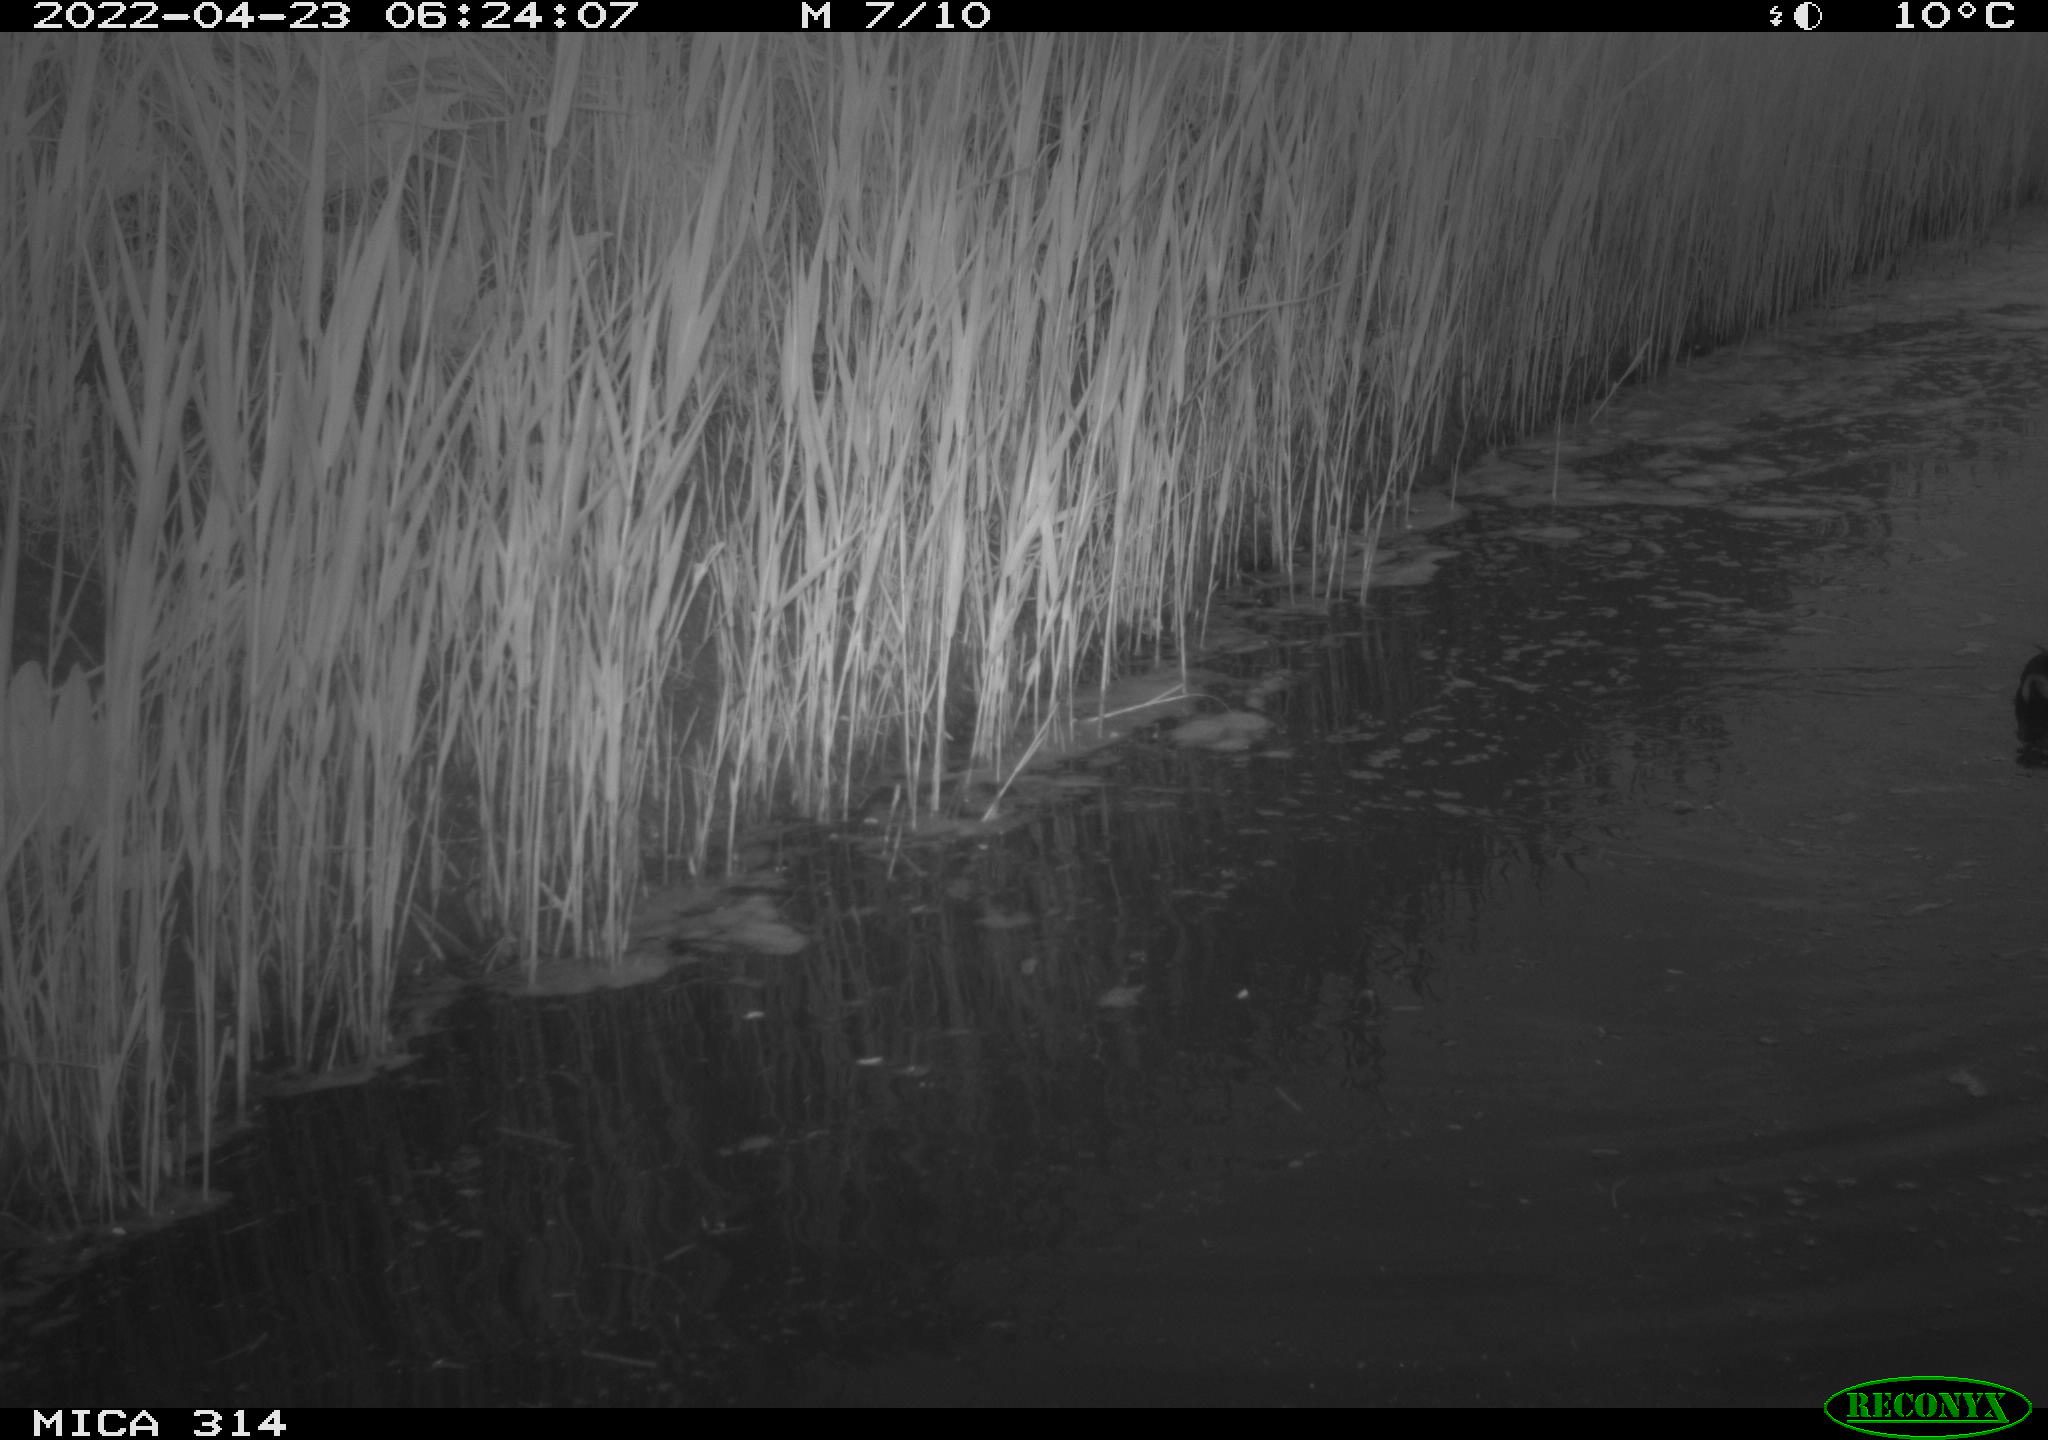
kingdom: Animalia
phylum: Chordata
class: Aves
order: Gruiformes
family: Rallidae
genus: Gallinula
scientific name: Gallinula chloropus
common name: Common moorhen
